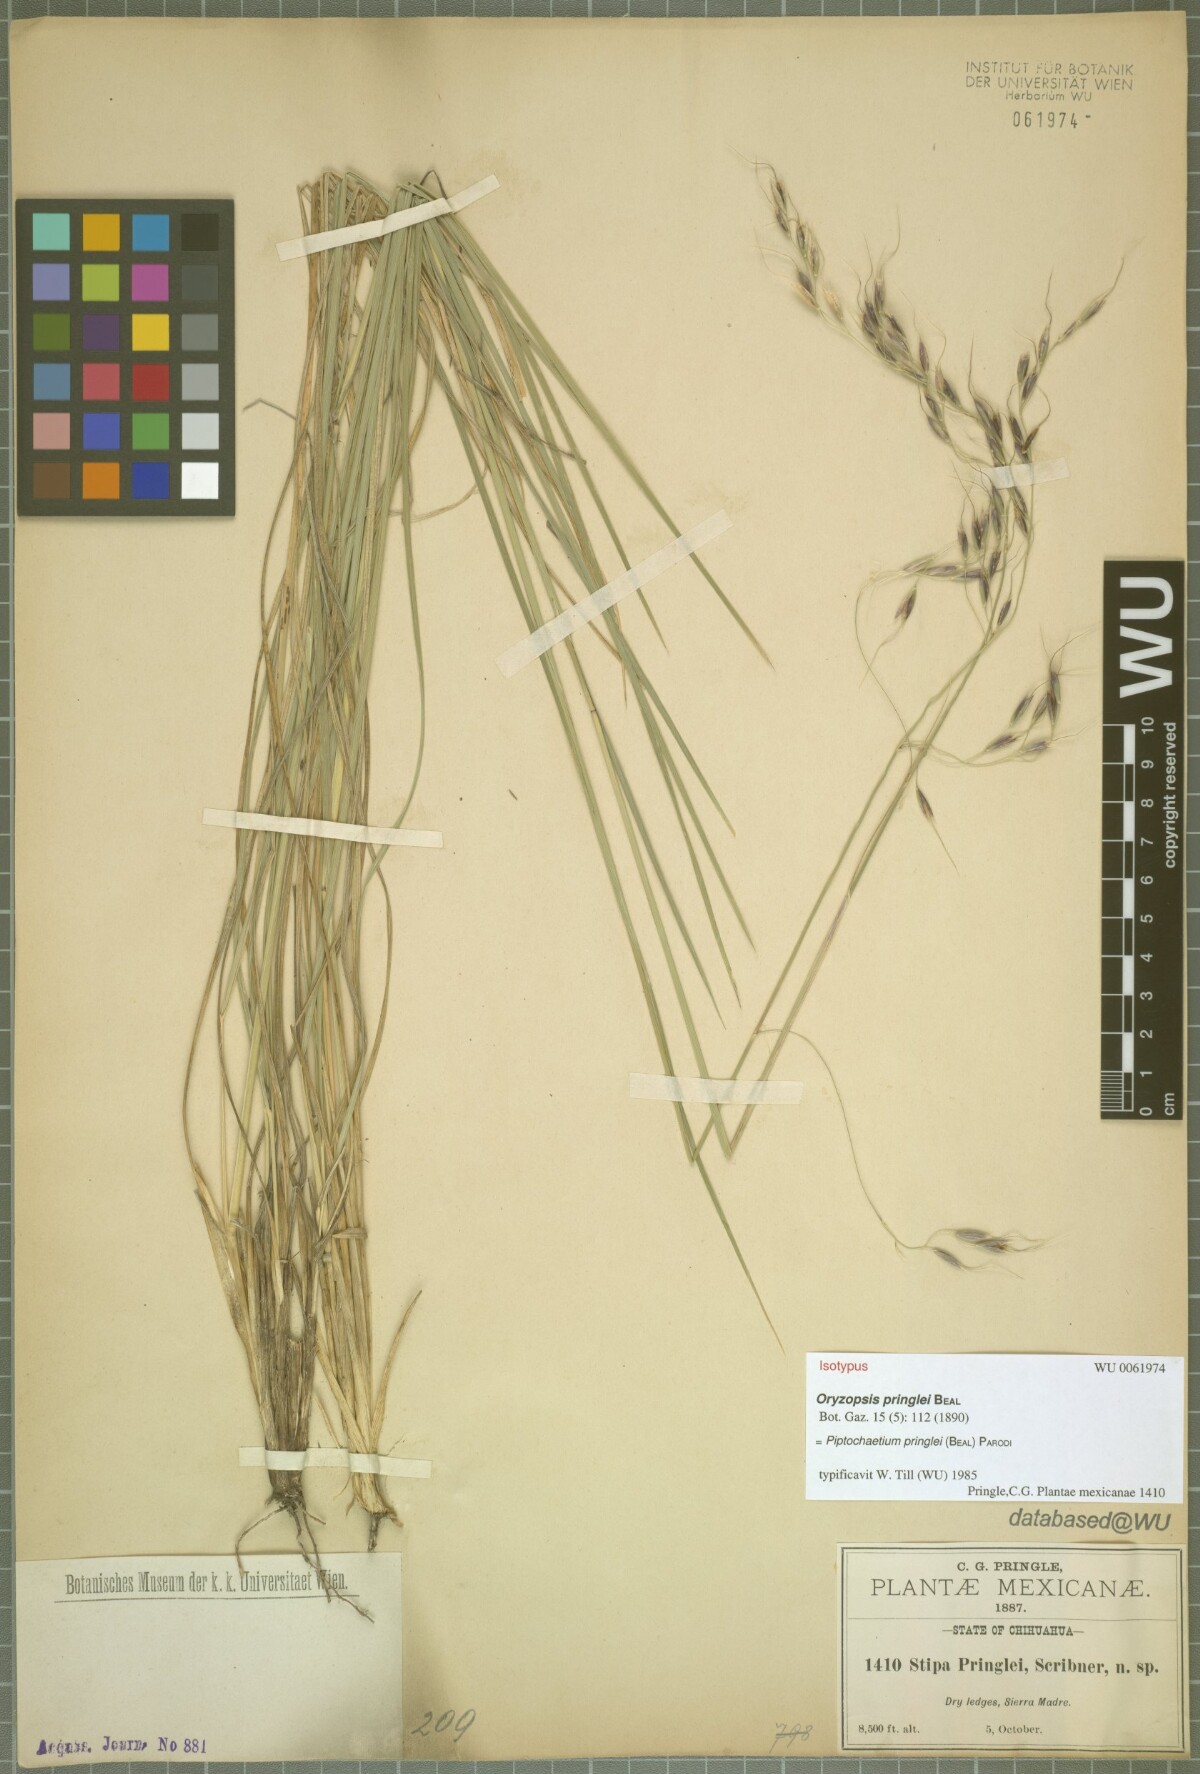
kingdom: Plantae
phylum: Tracheophyta
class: Liliopsida
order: Poales
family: Poaceae
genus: Piptochaetium
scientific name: Piptochaetium pringlei
